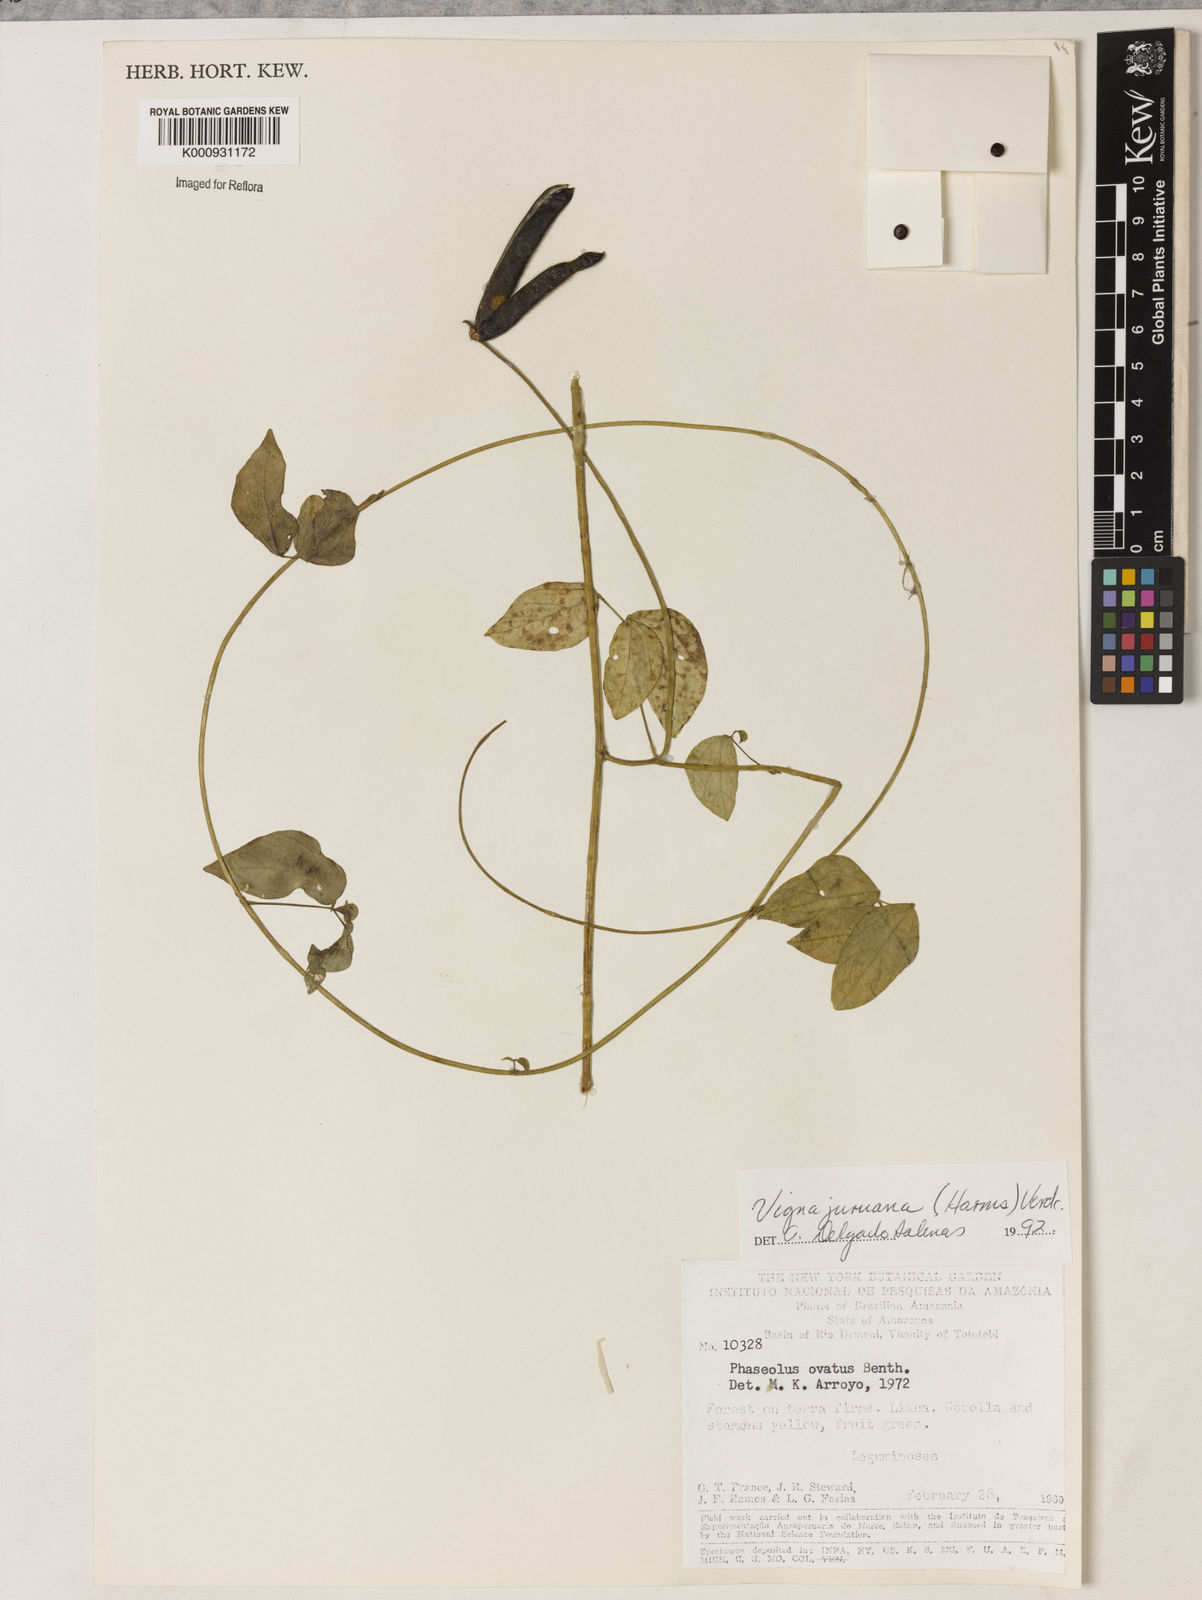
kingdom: Plantae
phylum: Tracheophyta
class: Magnoliopsida
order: Fabales
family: Fabaceae
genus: Vigna
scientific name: Vigna juruana
